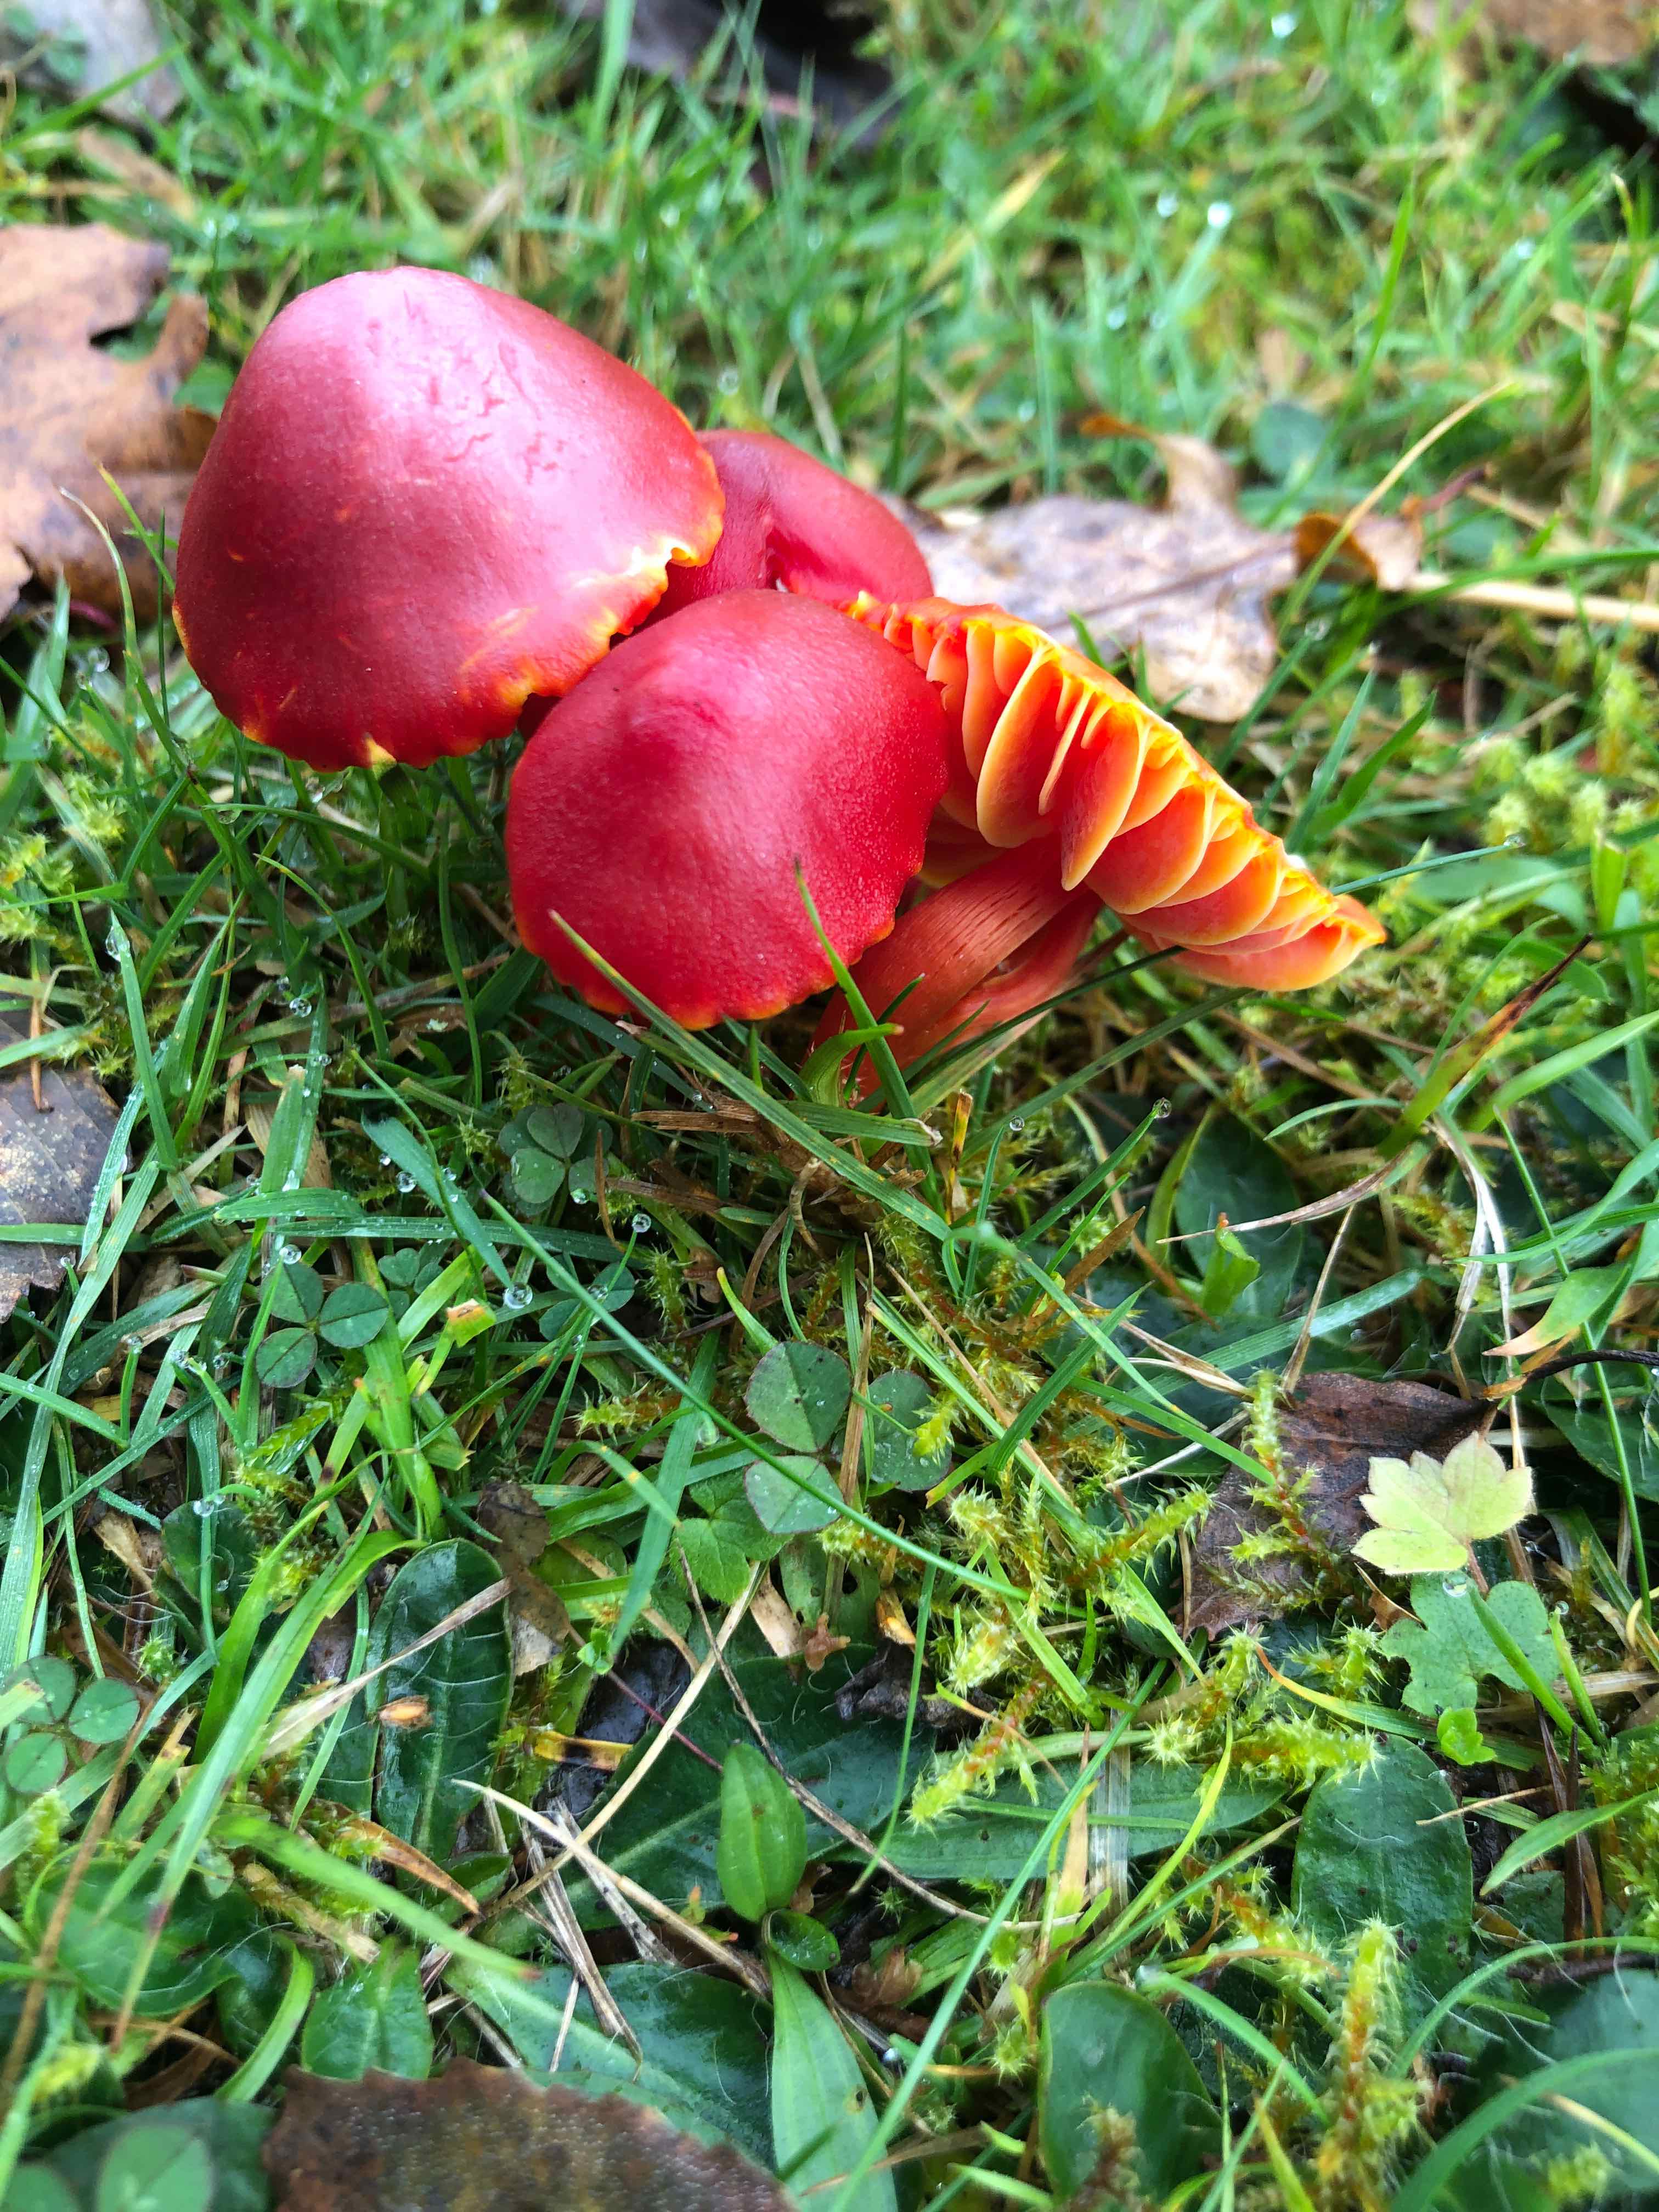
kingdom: Fungi
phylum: Basidiomycota
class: Agaricomycetes
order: Agaricales
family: Hygrophoraceae
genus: Hygrocybe
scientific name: Hygrocybe coccinea
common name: cinnober-vokshat
